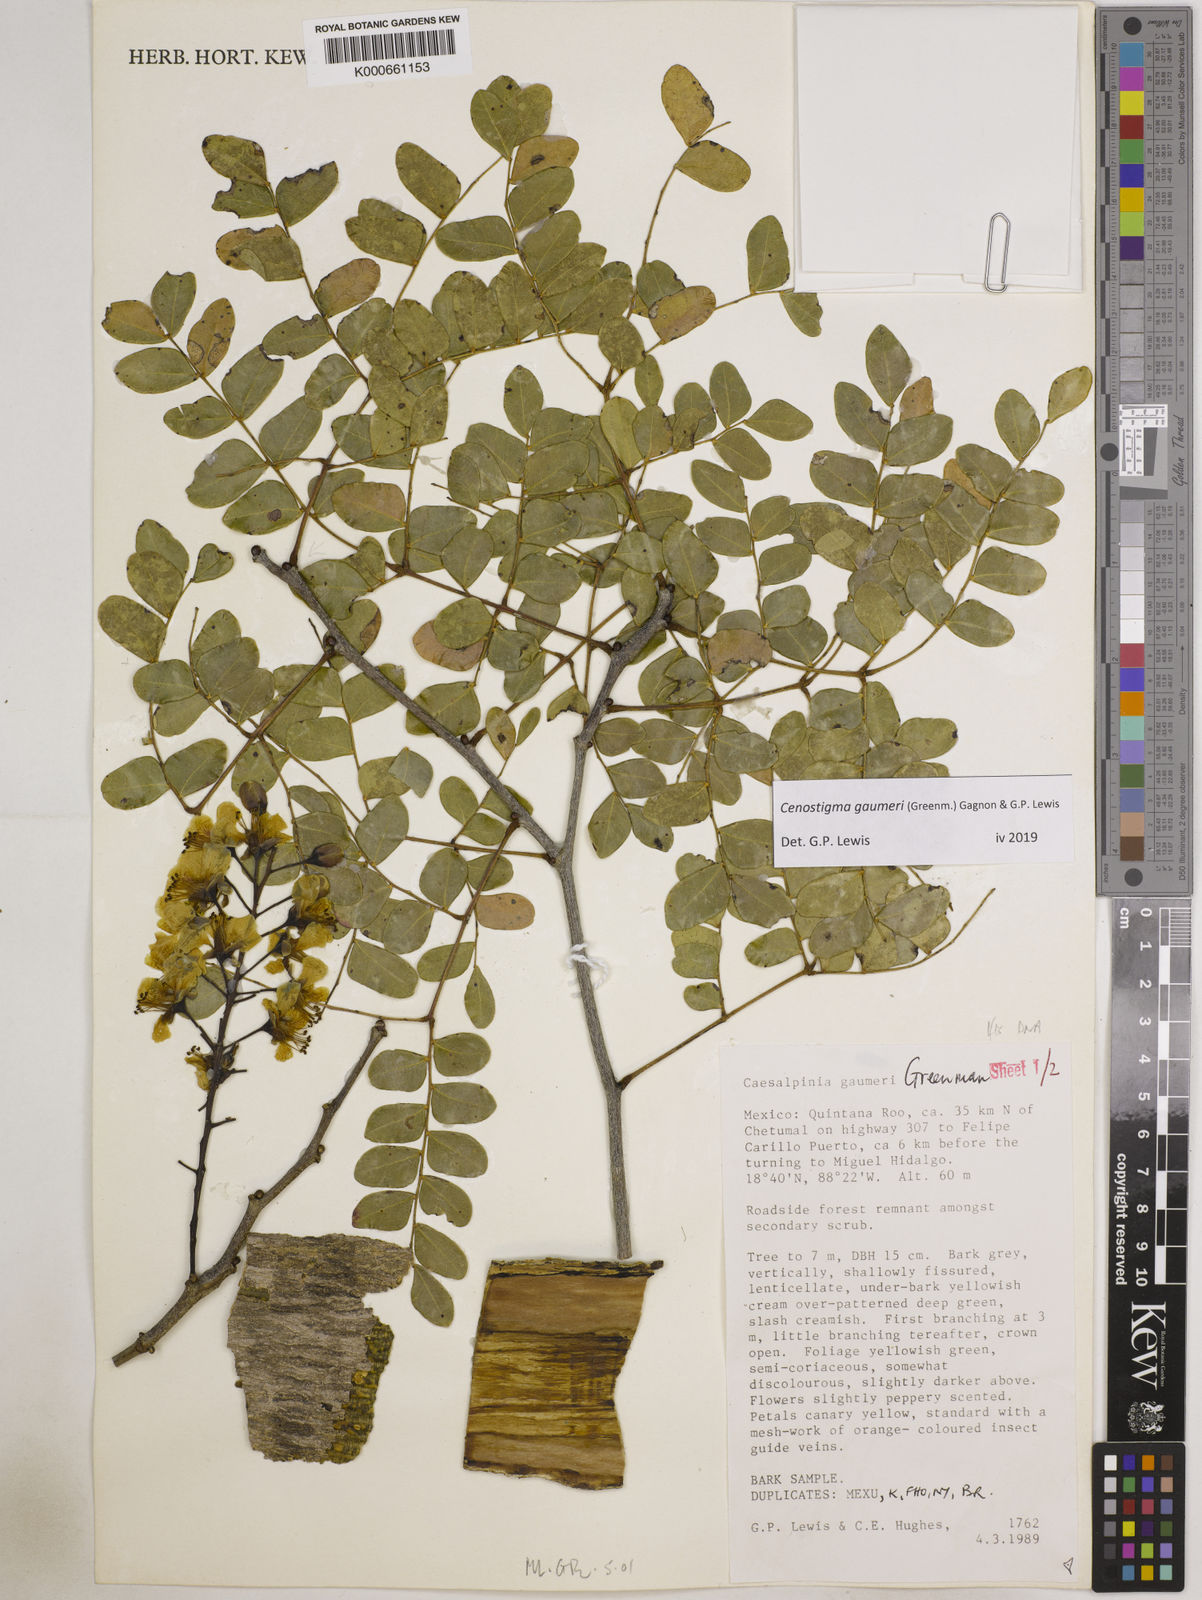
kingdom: Plantae
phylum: Tracheophyta
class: Magnoliopsida
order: Fabales
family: Fabaceae
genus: Cenostigma
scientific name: Cenostigma gaumeri
